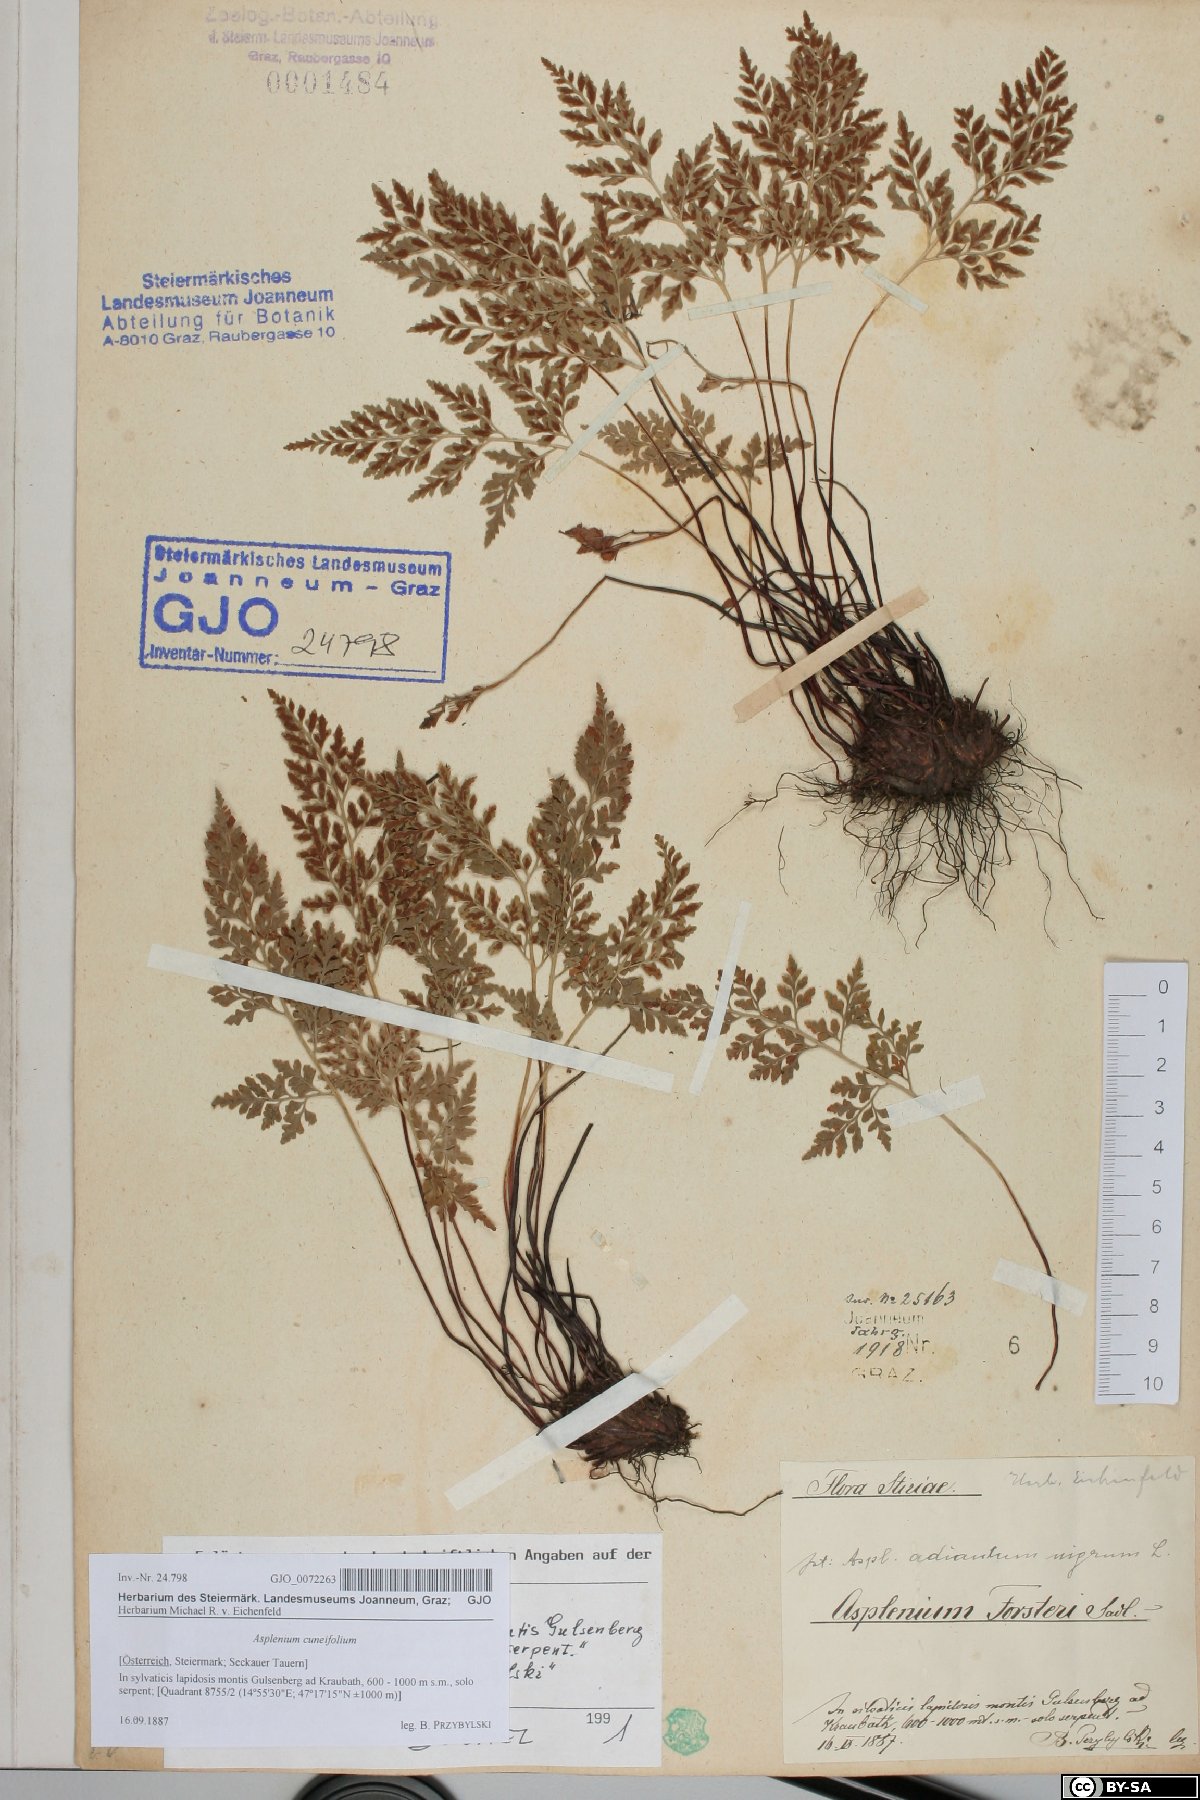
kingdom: Plantae
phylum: Tracheophyta
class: Polypodiopsida
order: Polypodiales
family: Aspleniaceae
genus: Asplenium
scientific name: Asplenium cuneifolium
